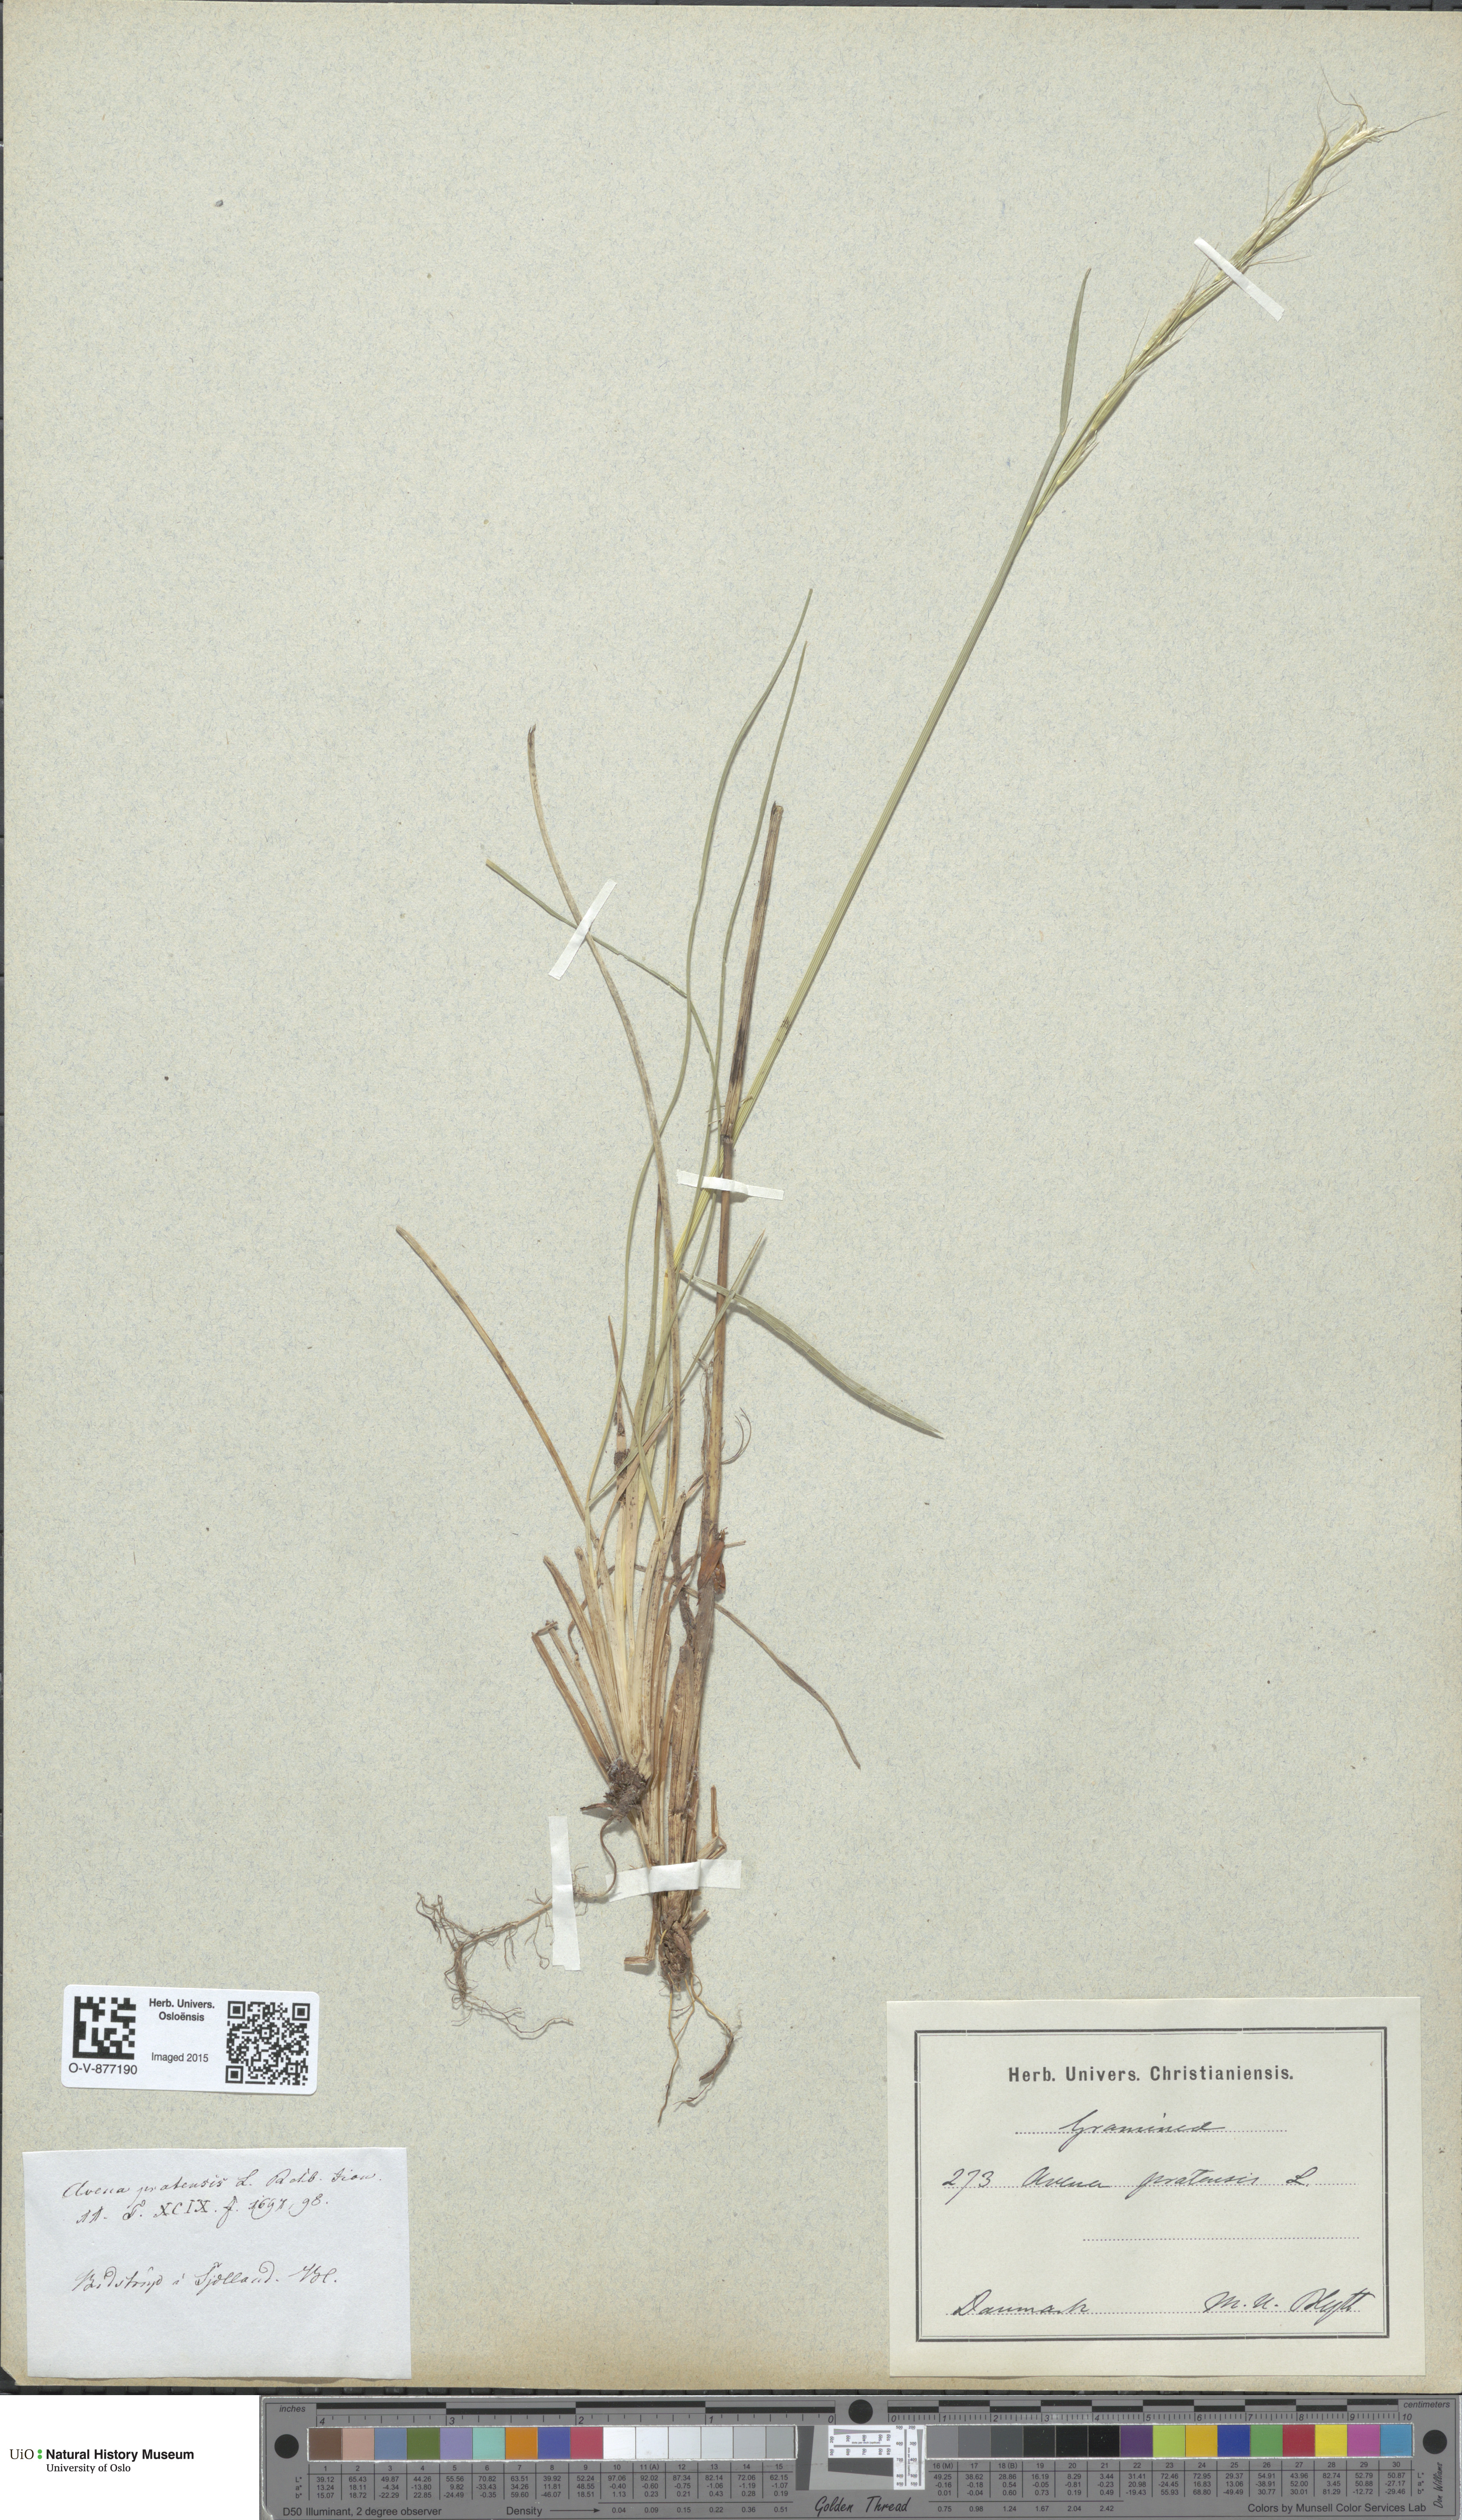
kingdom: Plantae
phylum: Tracheophyta
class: Liliopsida
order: Poales
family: Poaceae
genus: Helictochloa
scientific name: Helictochloa pratensis
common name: Meadow oat grass
